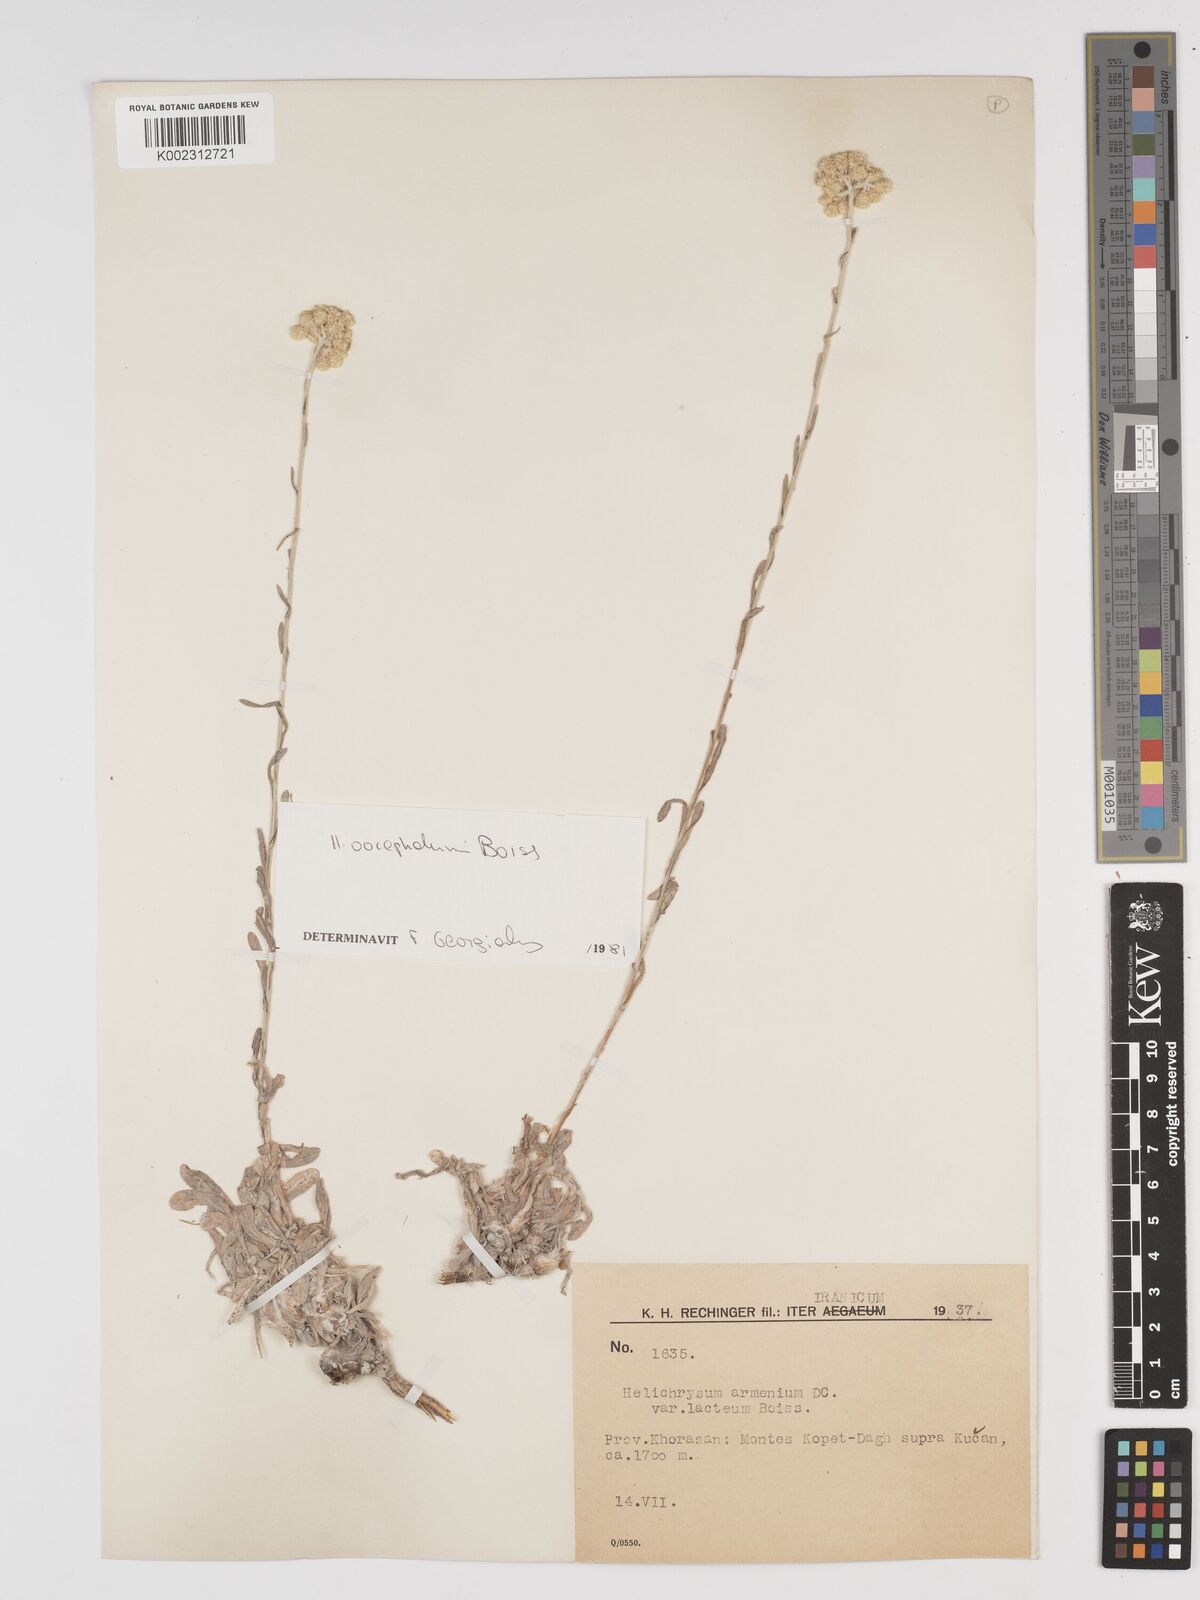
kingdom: Plantae
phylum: Tracheophyta
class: Magnoliopsida
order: Asterales
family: Asteraceae
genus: Helichrysum
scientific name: Helichrysum armenium
